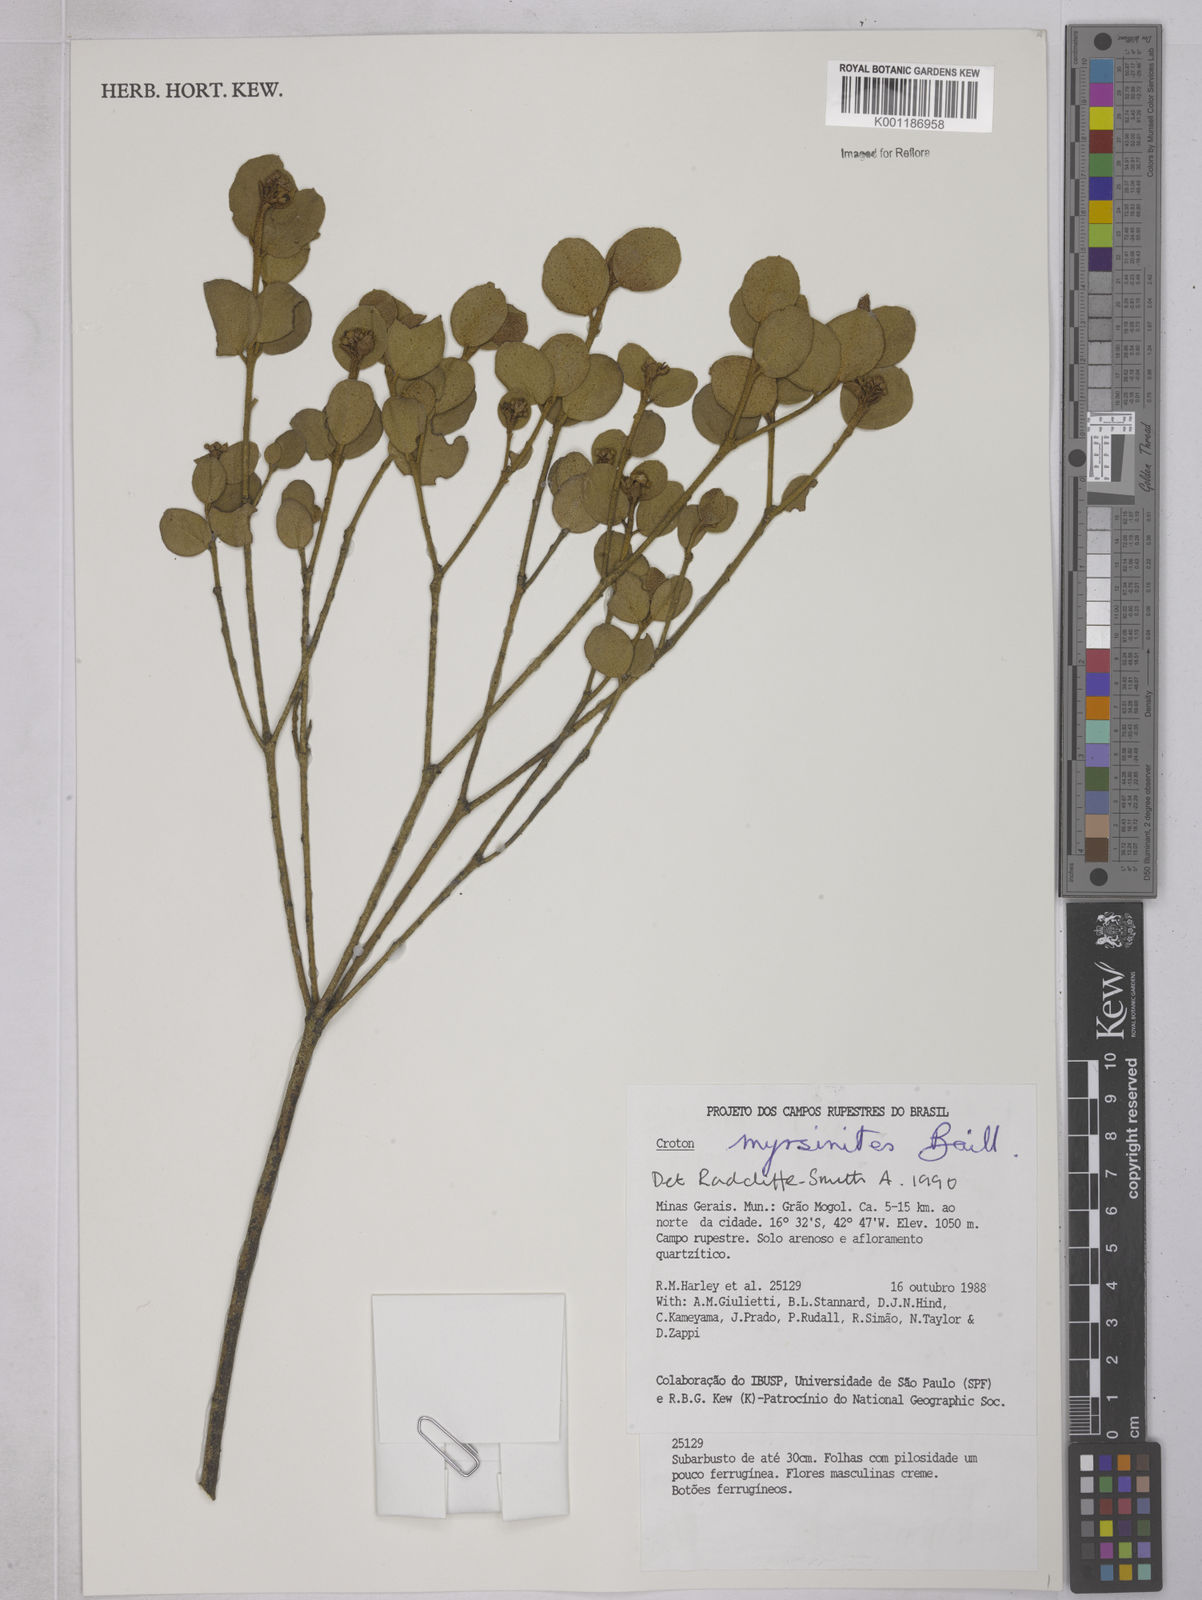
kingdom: Plantae
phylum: Tracheophyta
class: Magnoliopsida
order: Malpighiales
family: Euphorbiaceae
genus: Croton
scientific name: Croton myrsinites
